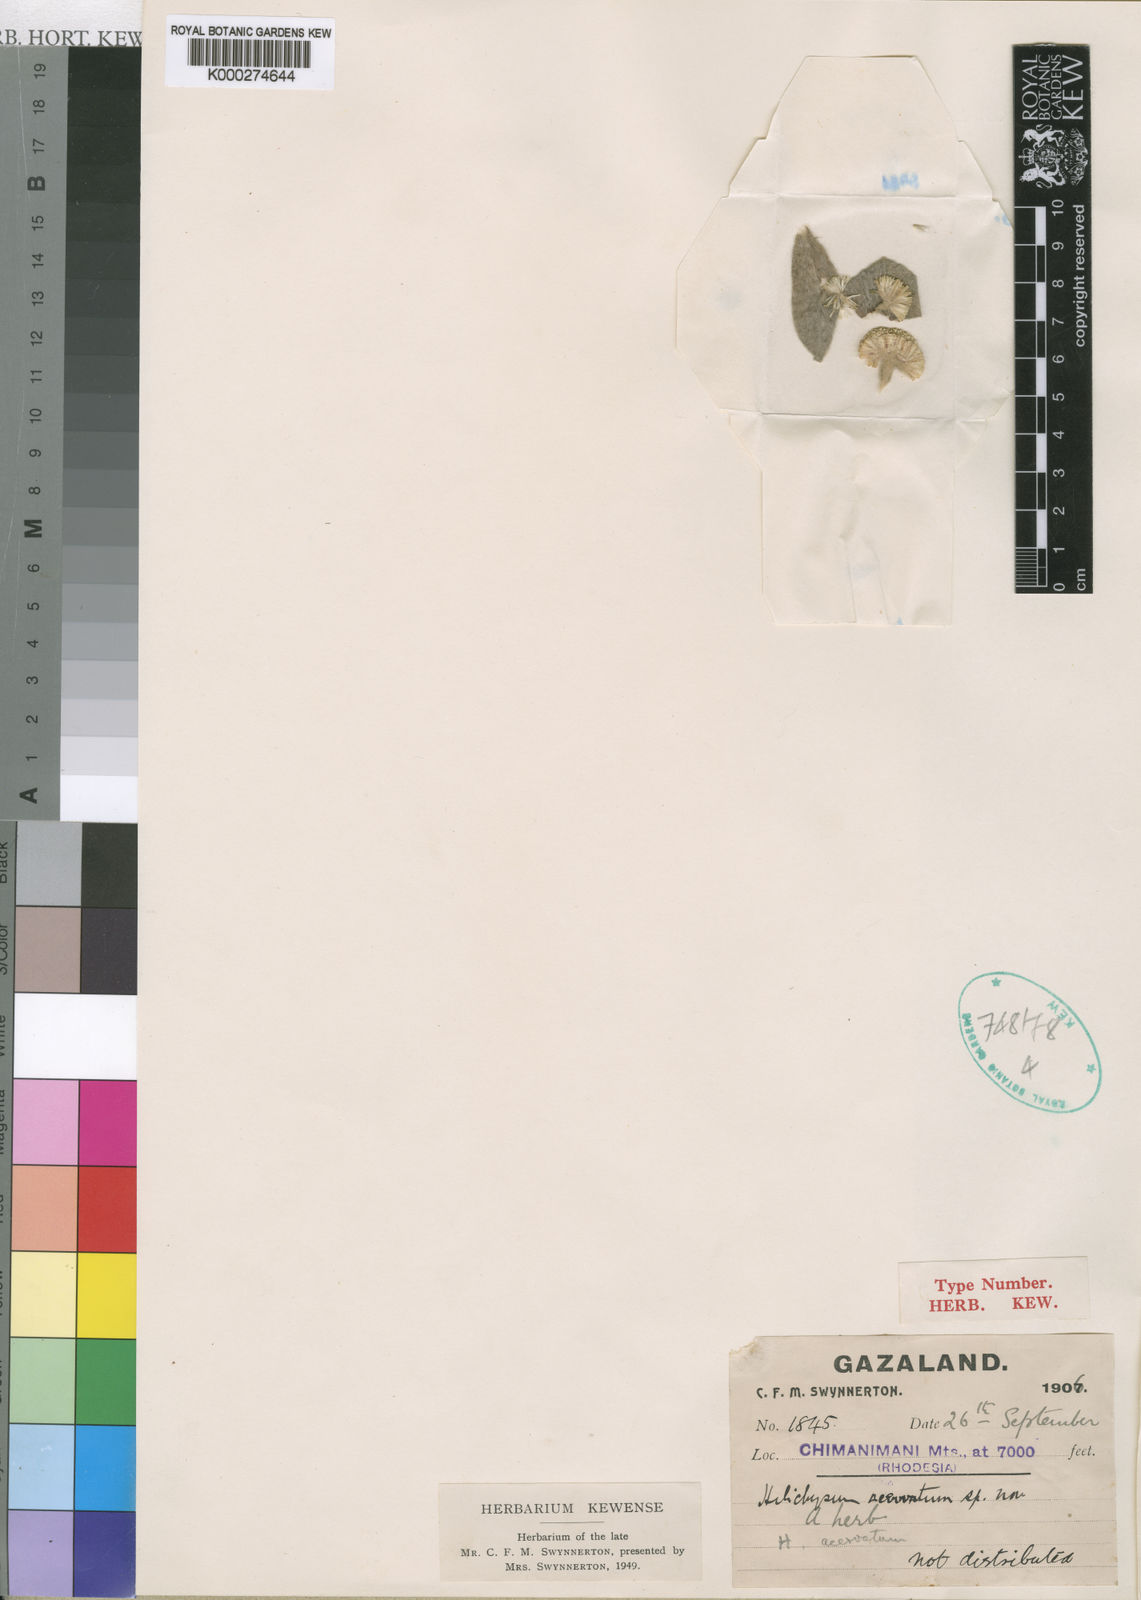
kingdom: Plantae
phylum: Tracheophyta
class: Magnoliopsida
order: Asterales
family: Asteraceae
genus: Helichrysum
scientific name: Helichrysum acervatum
